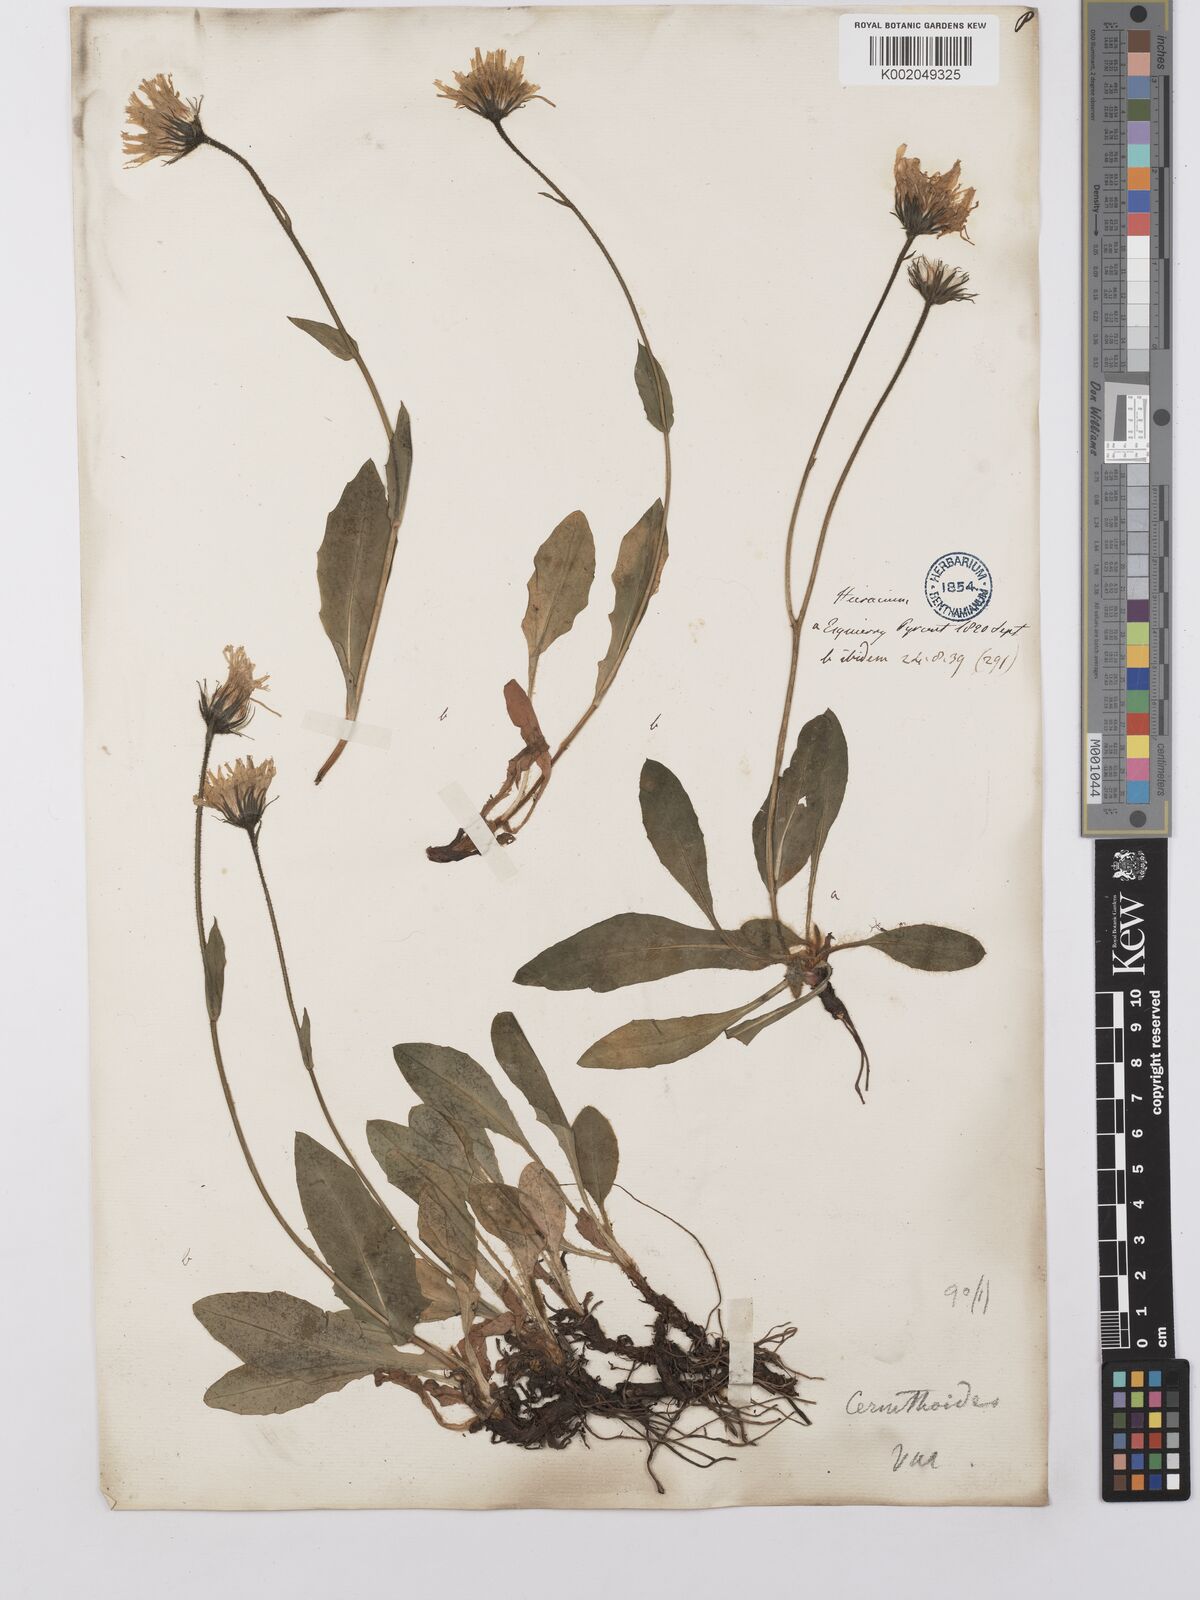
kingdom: Plantae
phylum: Tracheophyta
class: Magnoliopsida
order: Asterales
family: Asteraceae
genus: Hieracium
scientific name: Hieracium cerinthoides
